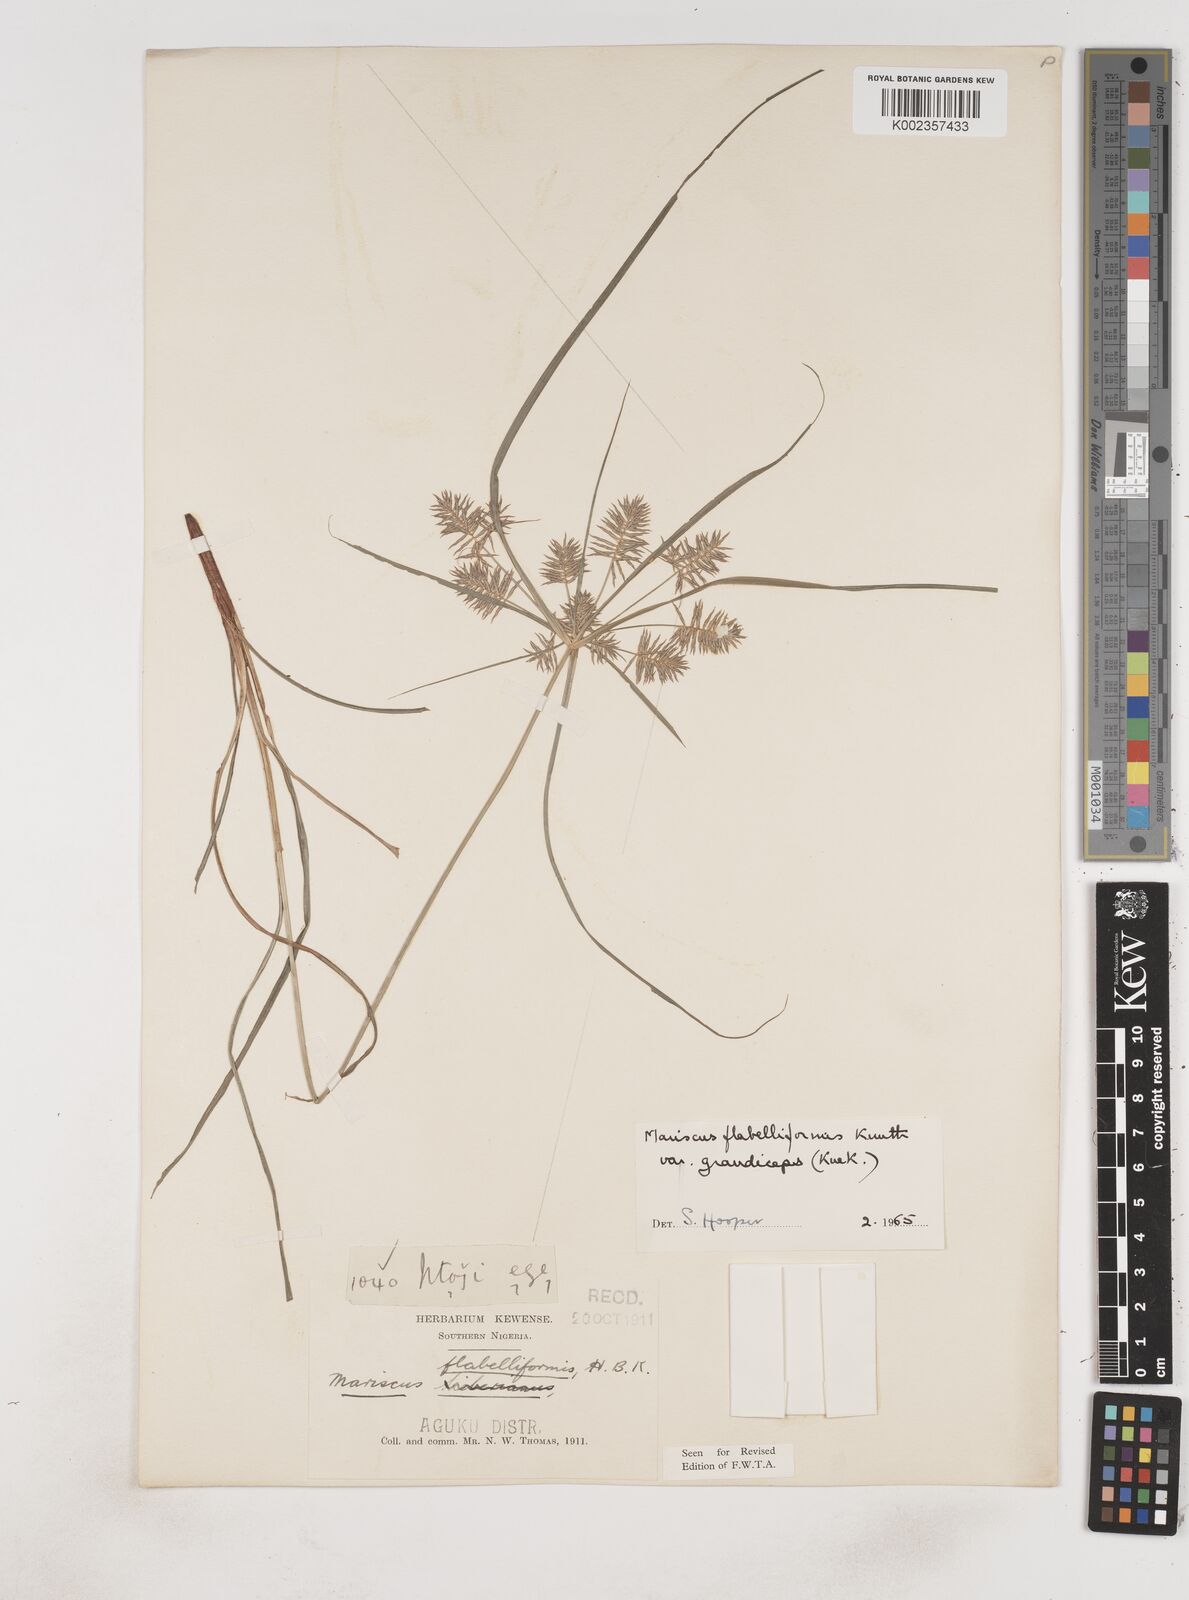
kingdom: Plantae
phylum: Tracheophyta
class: Liliopsida
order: Poales
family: Cyperaceae
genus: Cyperus
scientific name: Cyperus tenuis
